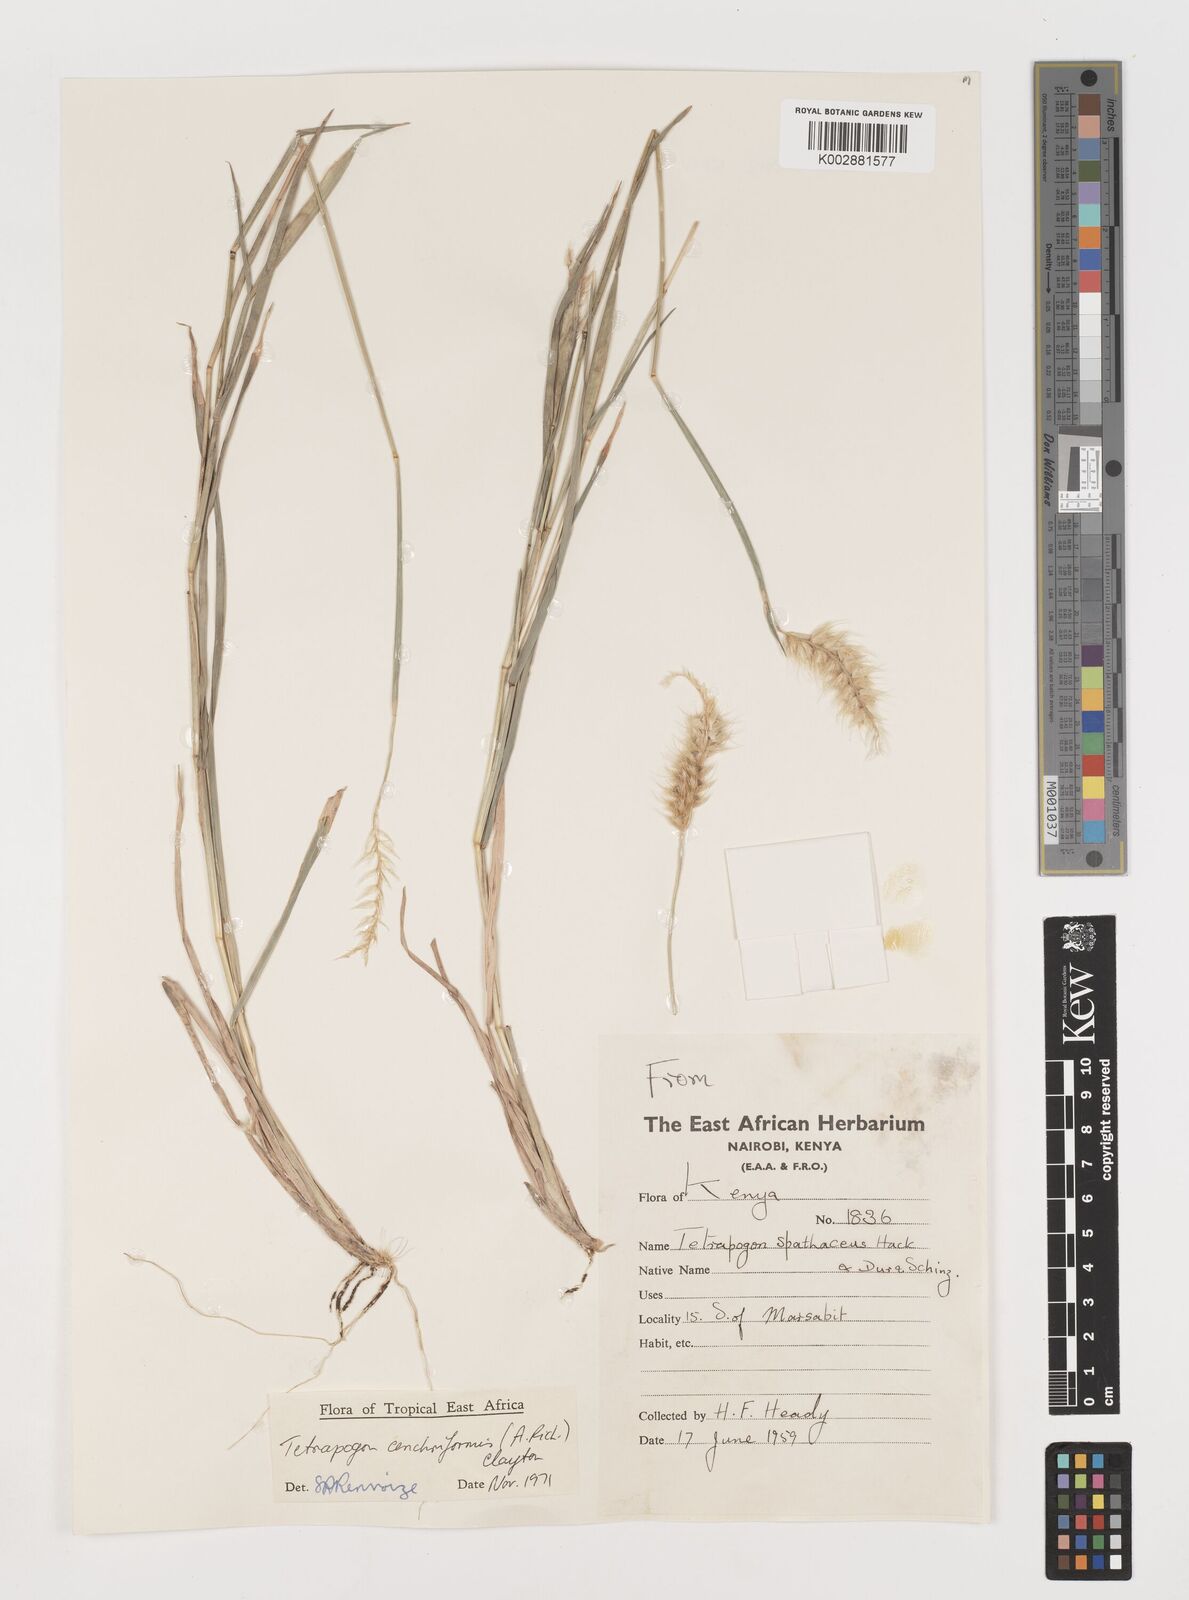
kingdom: Plantae
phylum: Tracheophyta
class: Liliopsida
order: Poales
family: Poaceae
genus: Tetrapogon
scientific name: Tetrapogon cenchriformis
